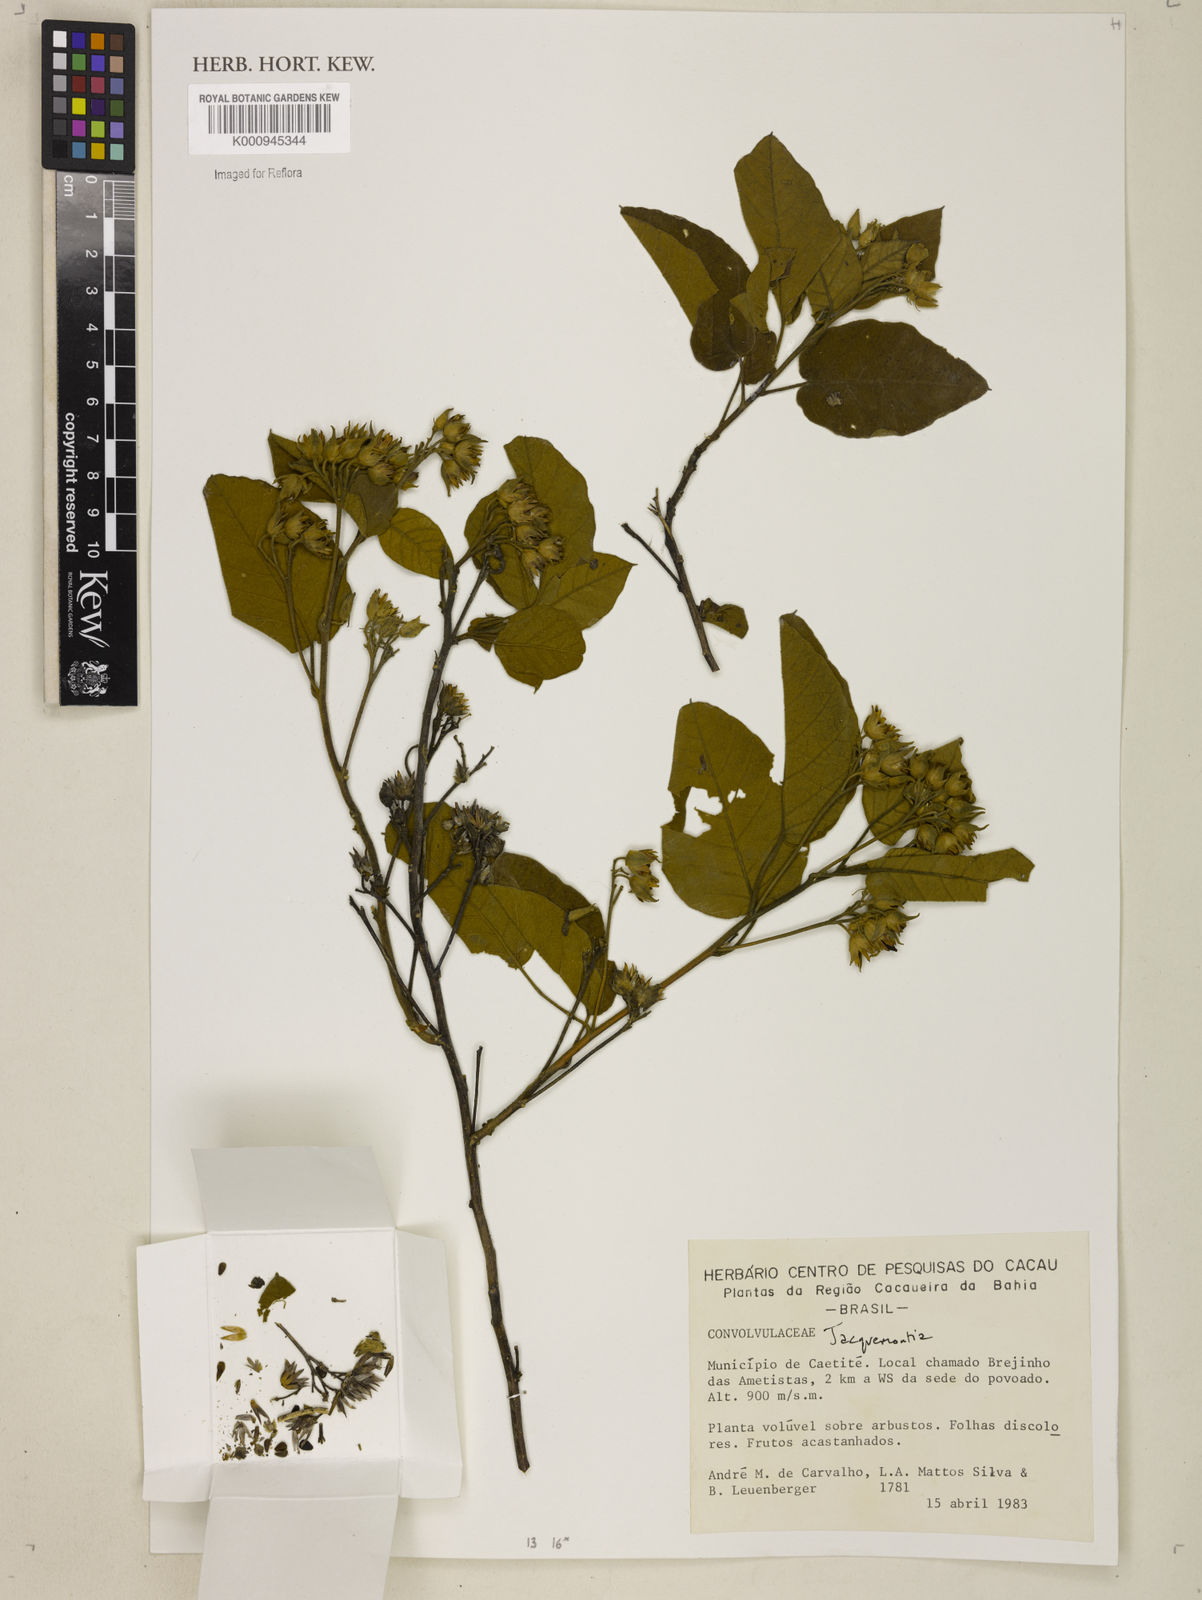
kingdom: Plantae
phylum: Tracheophyta
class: Magnoliopsida
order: Solanales
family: Convolvulaceae
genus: Jacquemontia
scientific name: Jacquemontia
